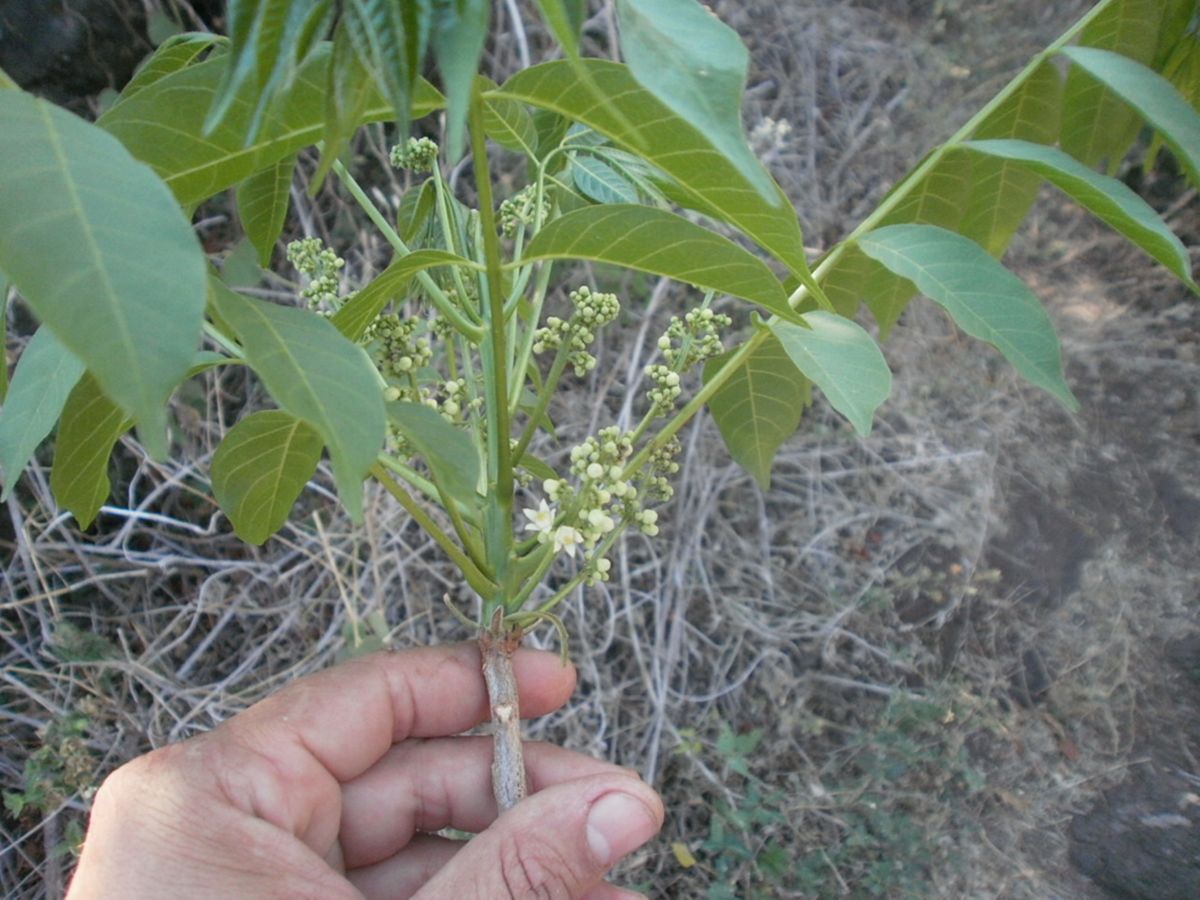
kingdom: Plantae
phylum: Tracheophyta
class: Magnoliopsida
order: Sapindales
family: Meliaceae
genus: Trichilia
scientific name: Trichilia hirta
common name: Red-cedar
